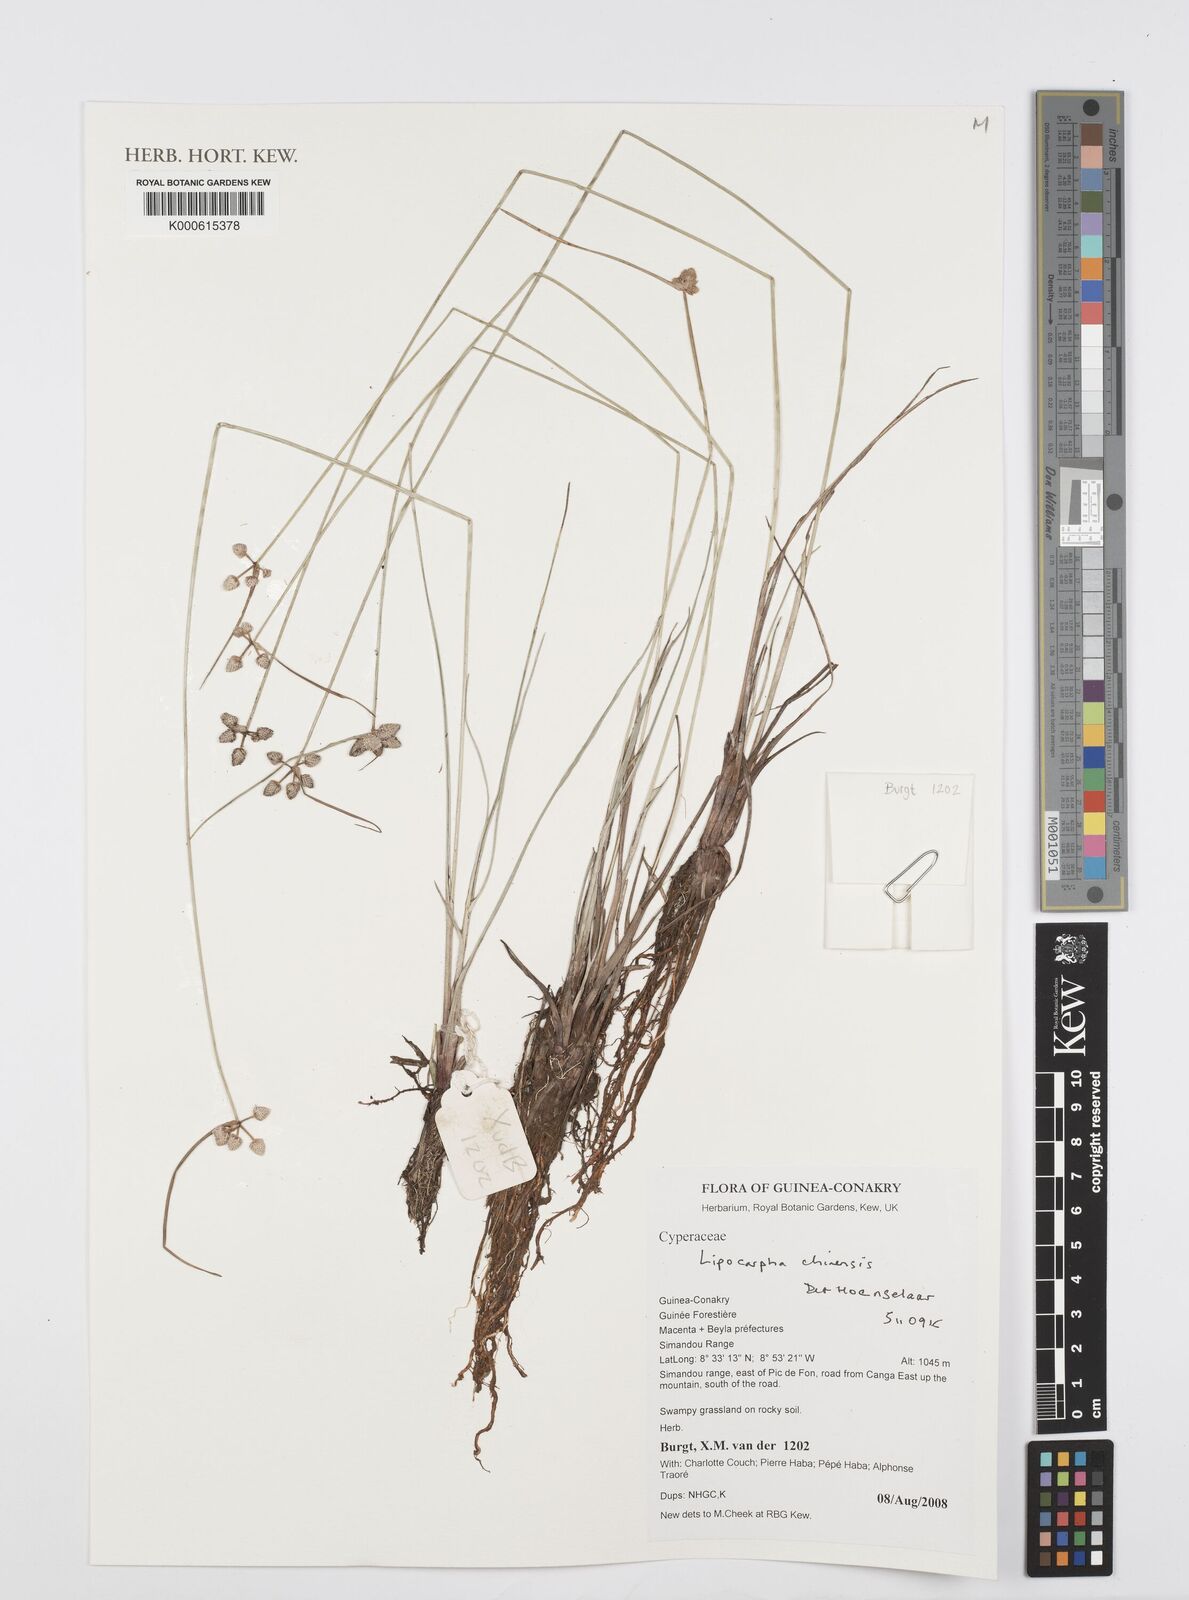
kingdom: Plantae
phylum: Tracheophyta
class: Liliopsida
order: Poales
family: Cyperaceae
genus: Cyperus
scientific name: Cyperus albescens
